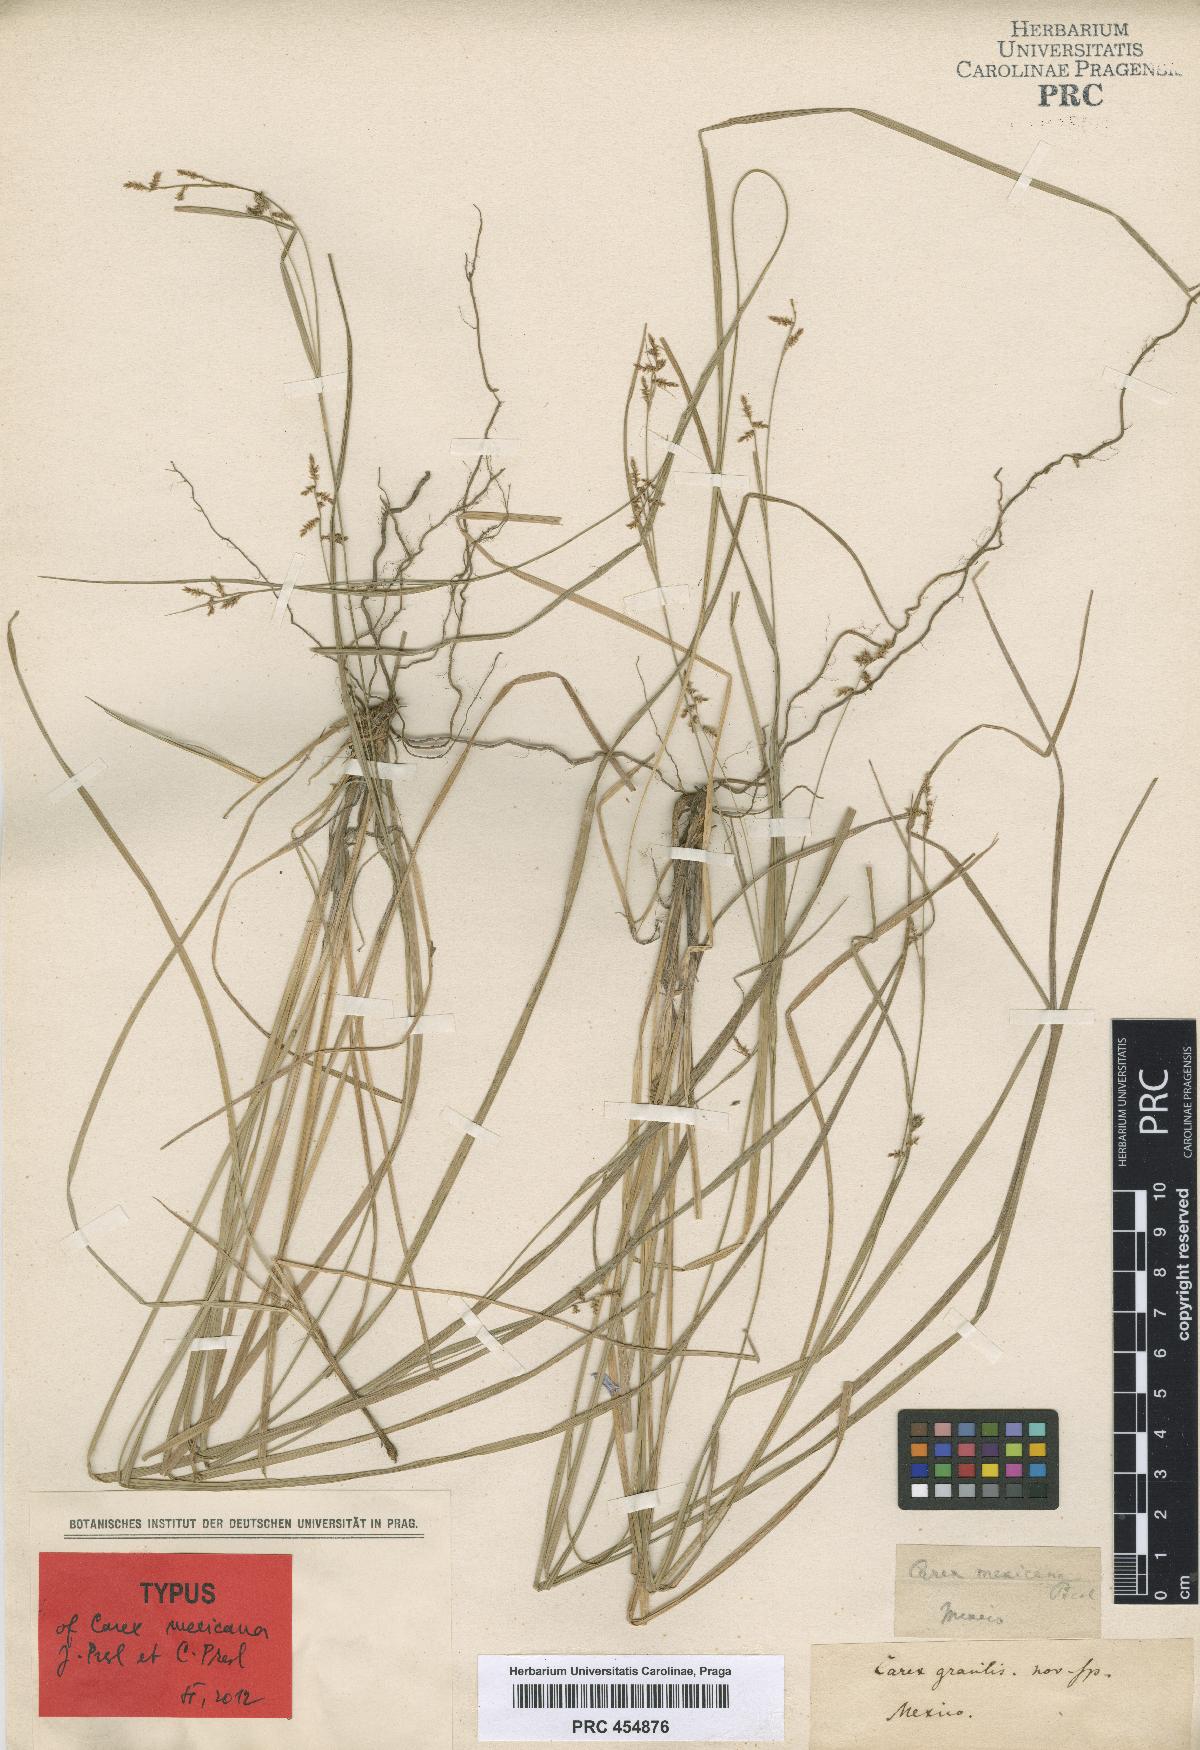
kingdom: Plantae
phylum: Tracheophyta
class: Liliopsida
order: Poales
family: Cyperaceae
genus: Carex
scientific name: Carex polystachya
